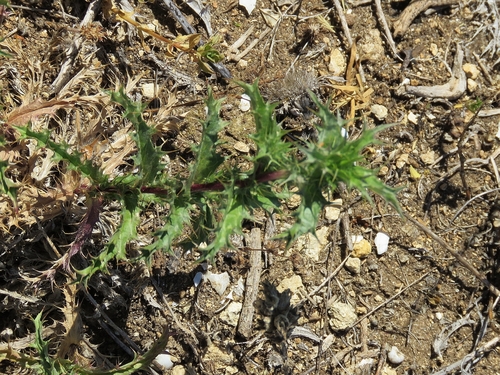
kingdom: Plantae
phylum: Tracheophyta
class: Magnoliopsida
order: Asterales
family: Asteraceae
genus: Carlina
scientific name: Carlina hispanica
